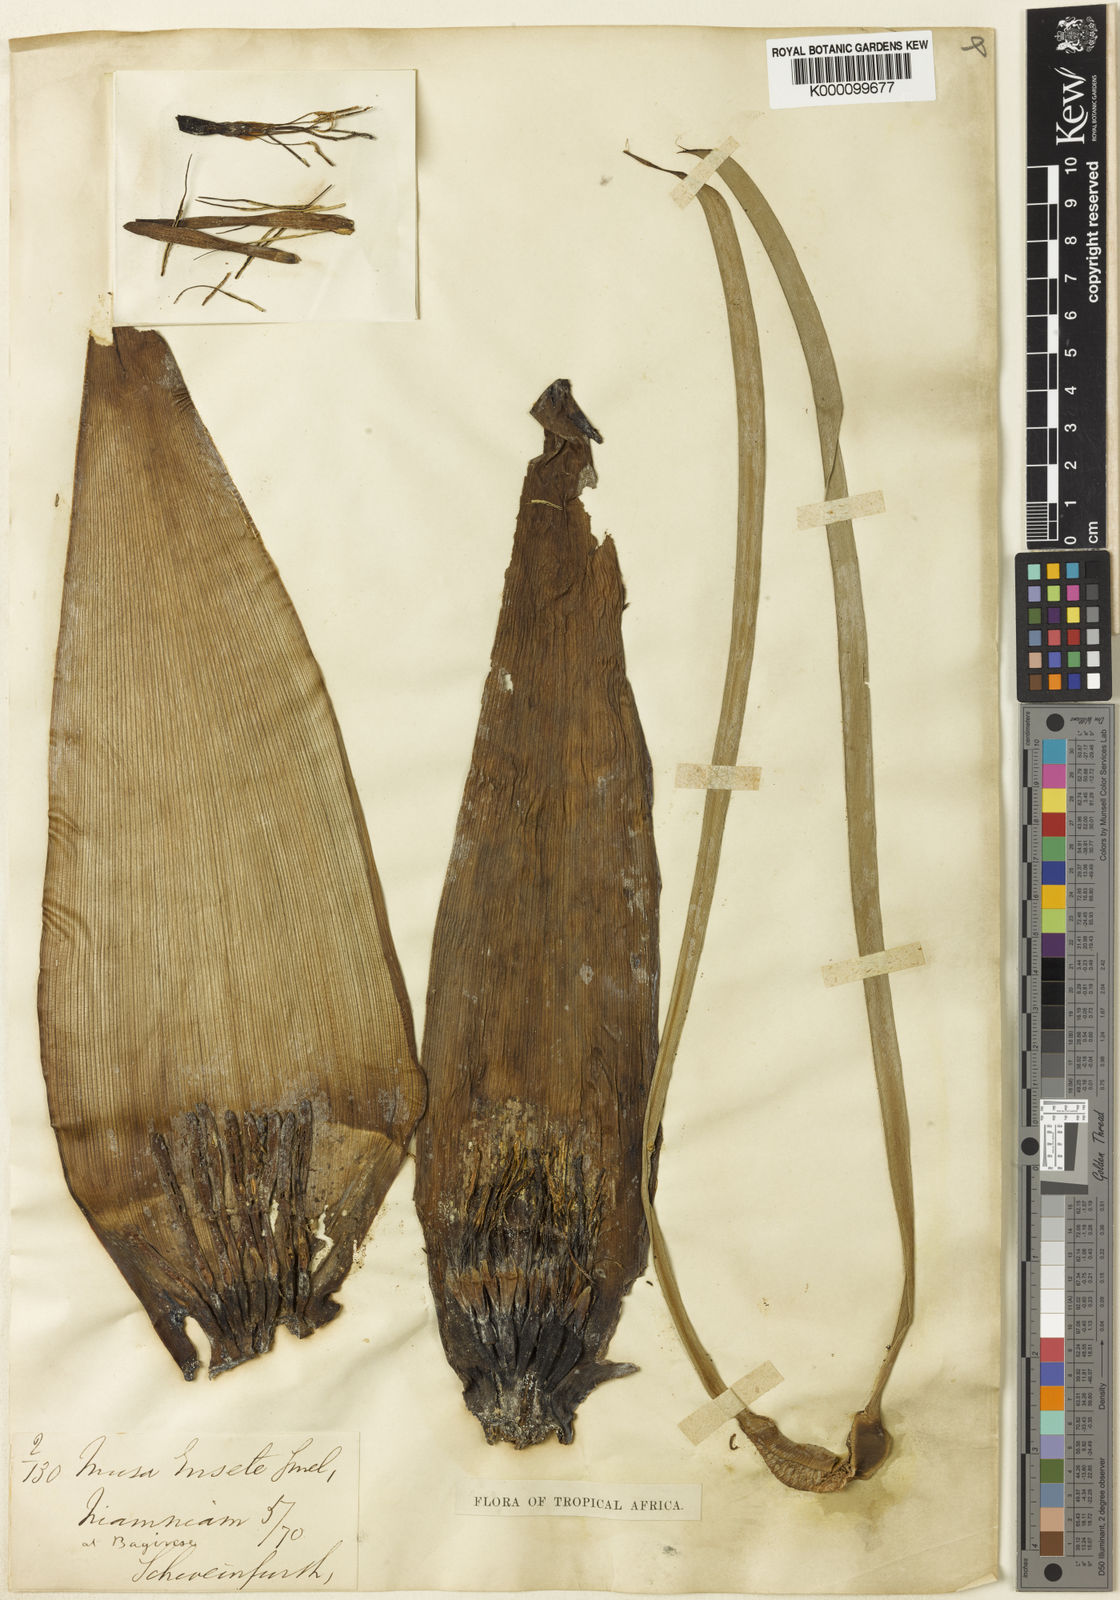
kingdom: Plantae
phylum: Tracheophyta
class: Liliopsida
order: Zingiberales
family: Musaceae
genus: Ensete
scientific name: Ensete livingstonianum
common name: Livingston's banana
